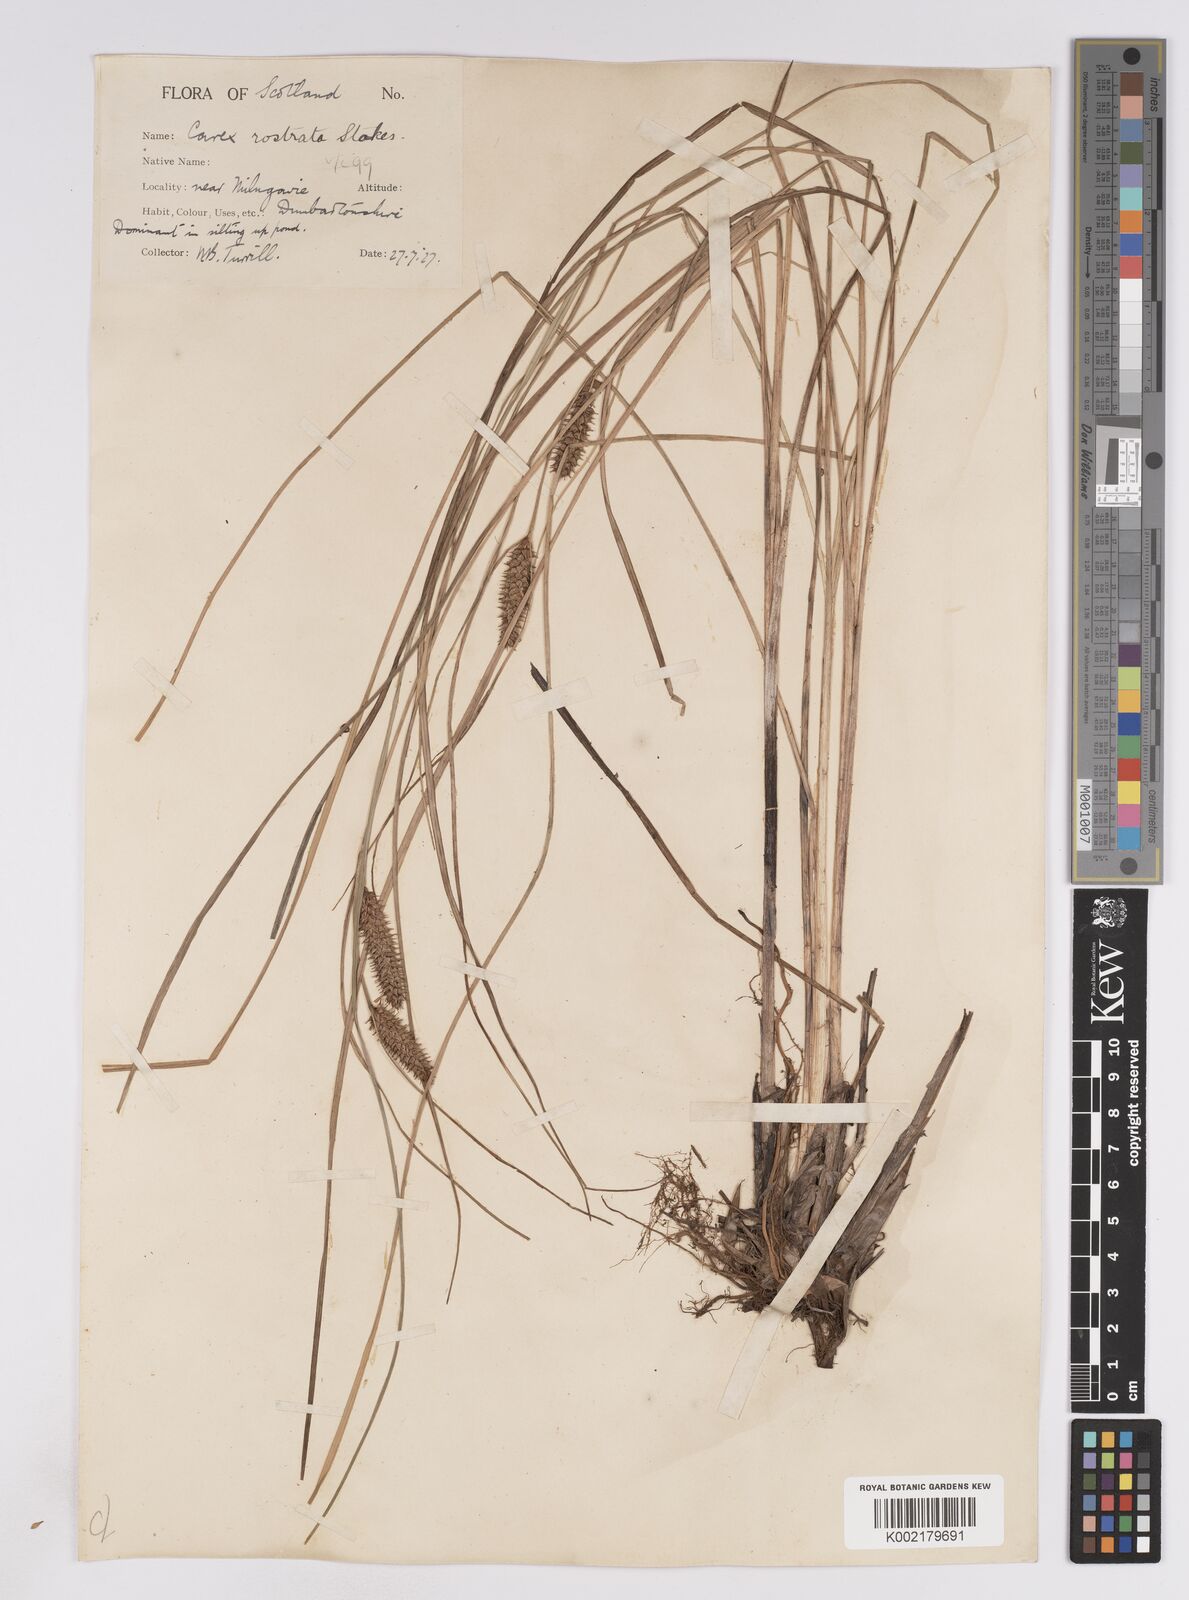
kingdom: Plantae
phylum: Tracheophyta
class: Liliopsida
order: Poales
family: Cyperaceae
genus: Carex
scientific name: Carex rostrata
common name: Bottle sedge
